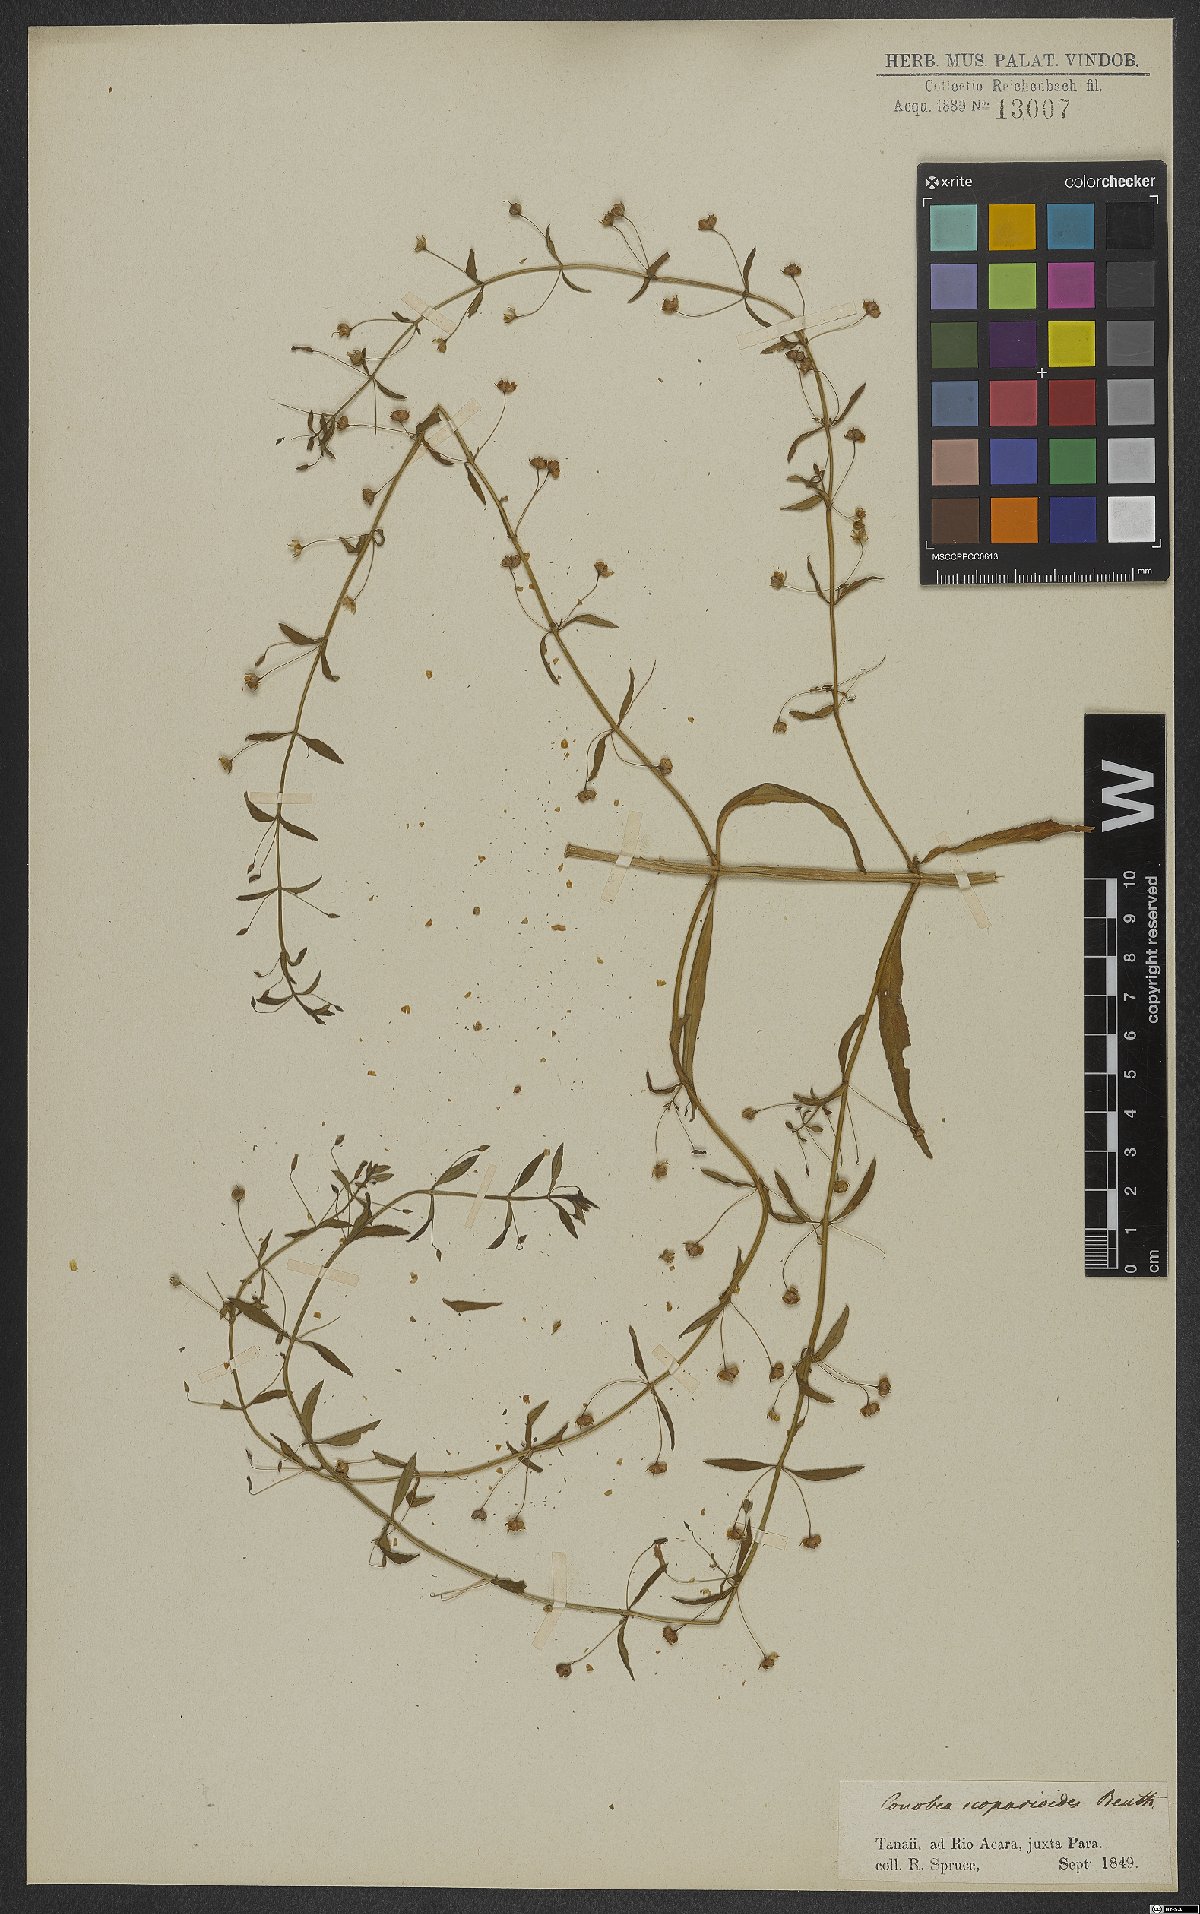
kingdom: Plantae
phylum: Tracheophyta
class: Magnoliopsida
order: Lamiales
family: Plantaginaceae
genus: Conobea
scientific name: Conobea scoparioides
